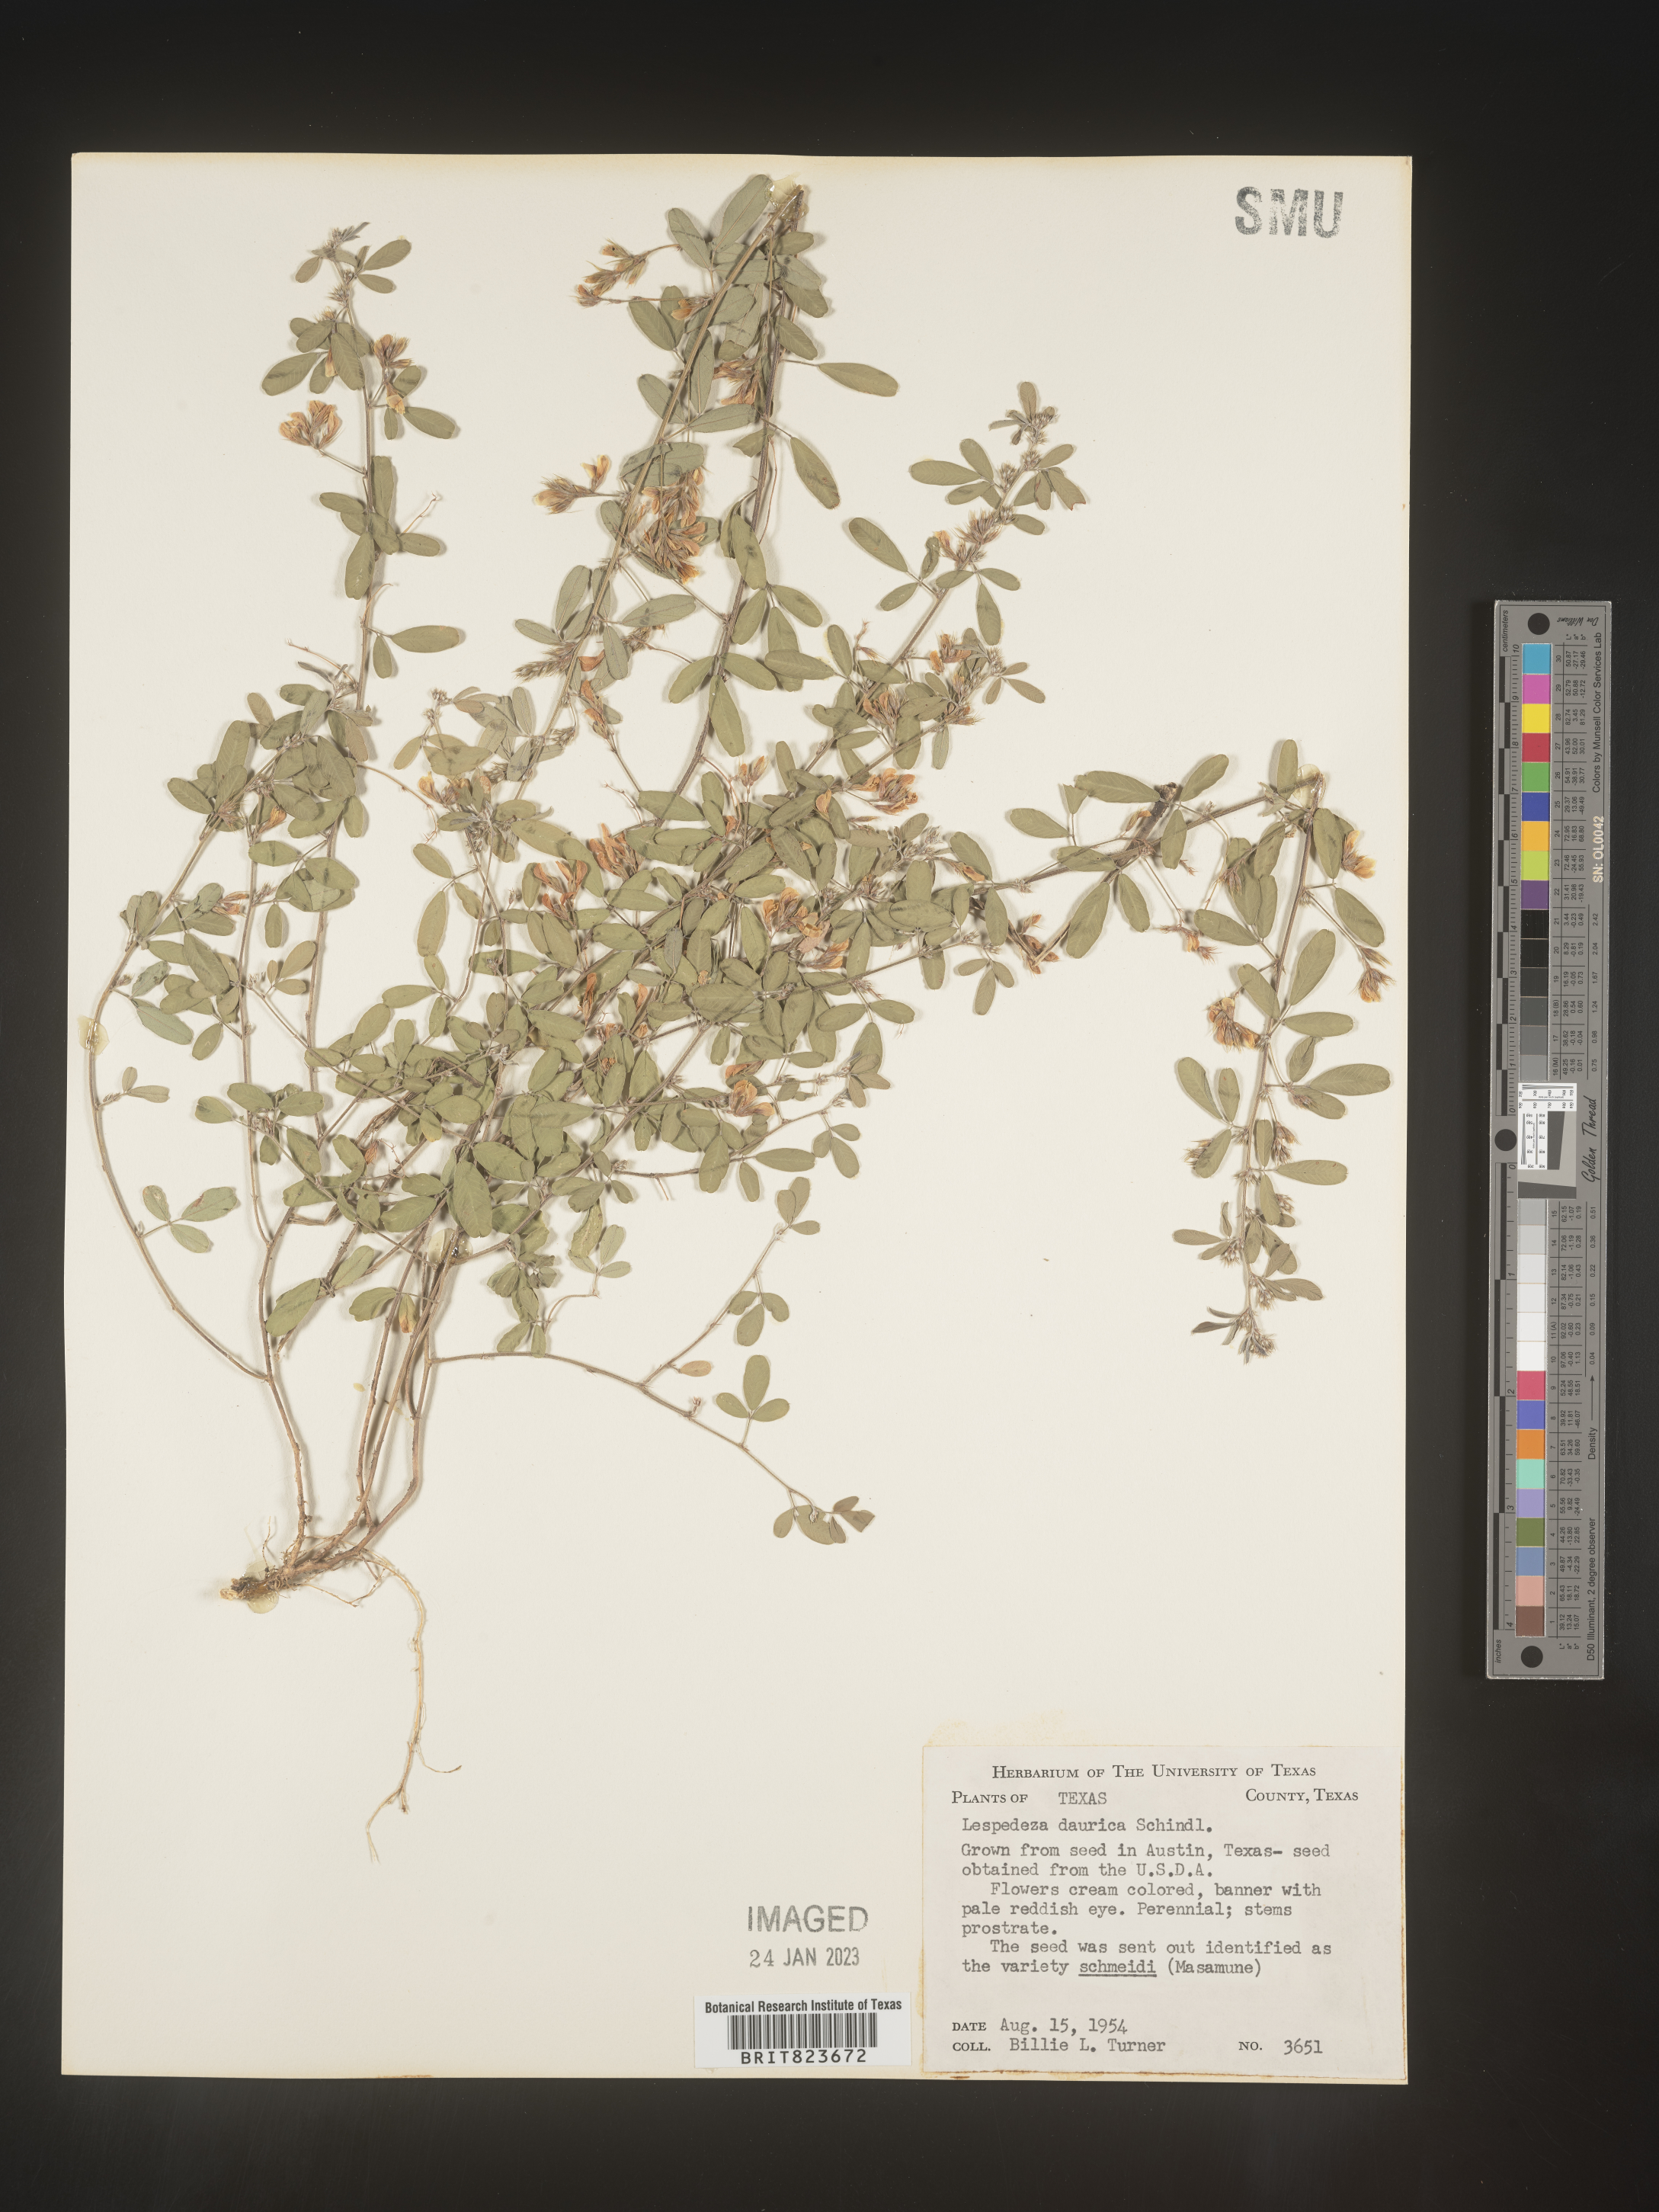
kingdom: Plantae
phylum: Tracheophyta
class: Magnoliopsida
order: Fabales
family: Fabaceae
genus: Lespedeza
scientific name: Lespedeza
